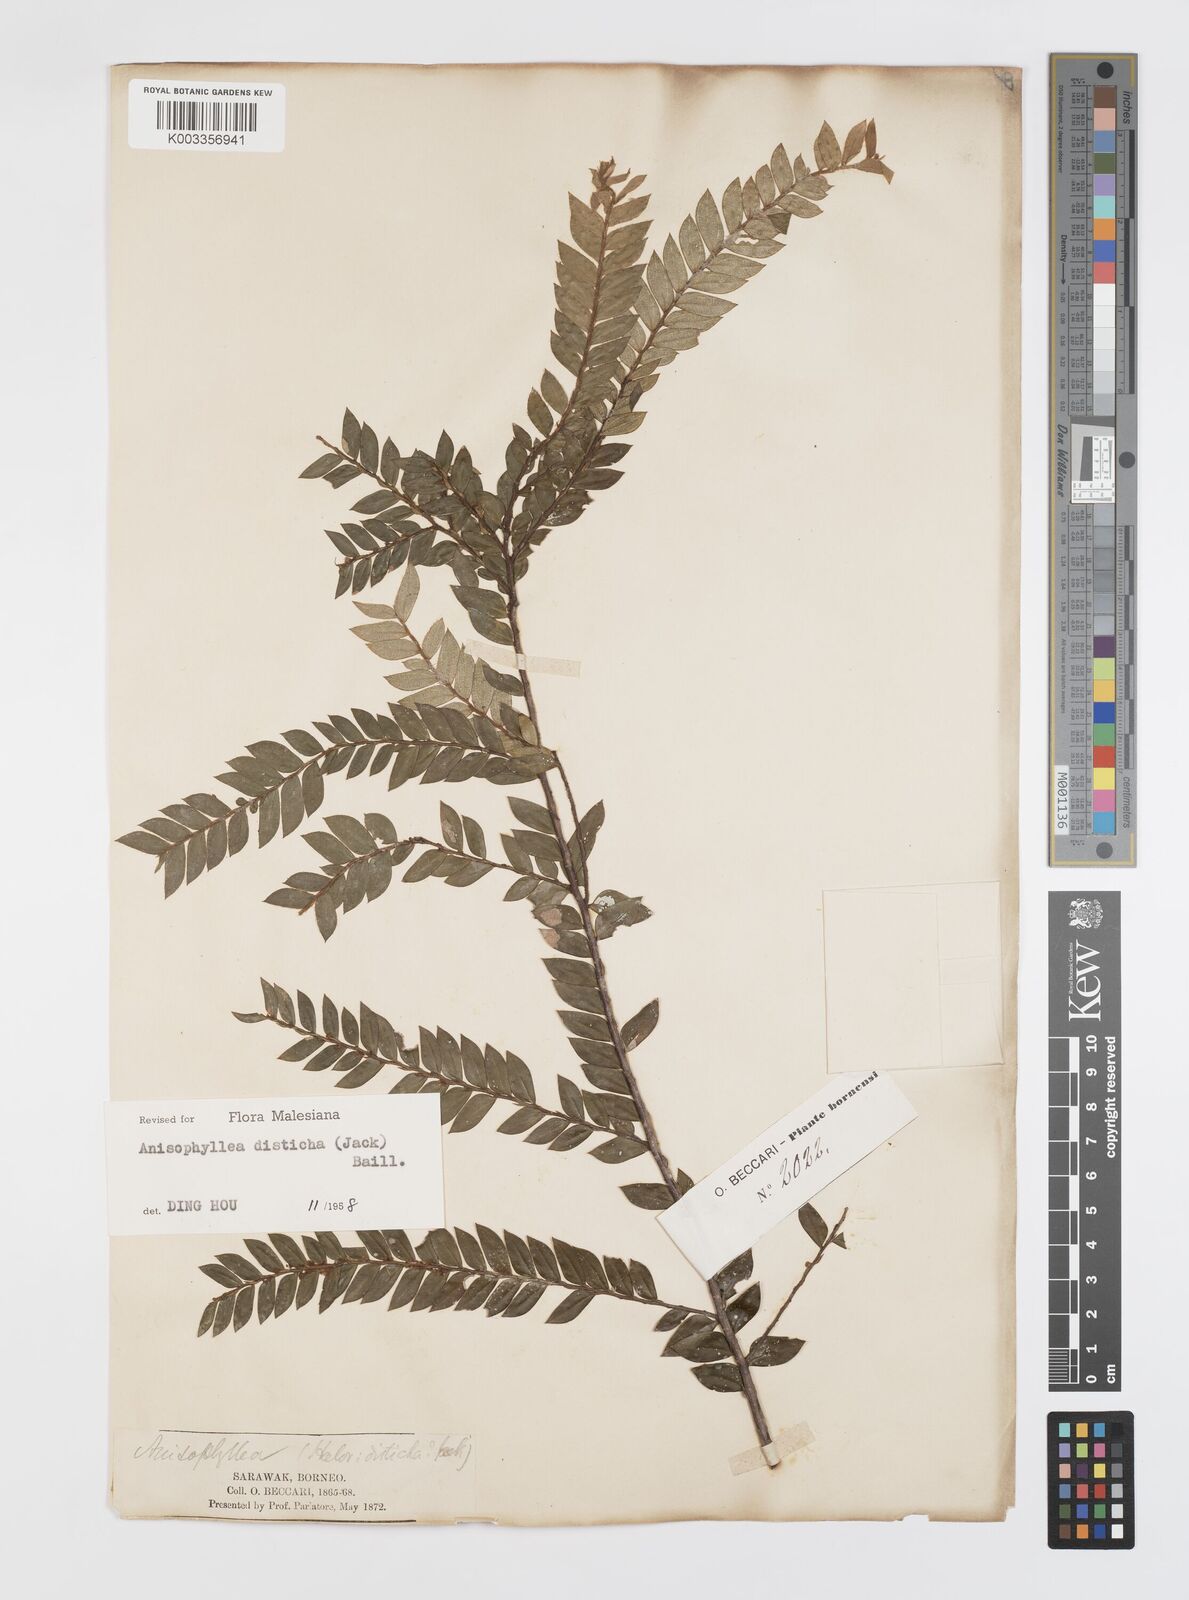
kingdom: Plantae
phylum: Tracheophyta
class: Magnoliopsida
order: Cucurbitales
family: Anisophylleaceae
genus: Anisophyllea
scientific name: Anisophyllea disticha
